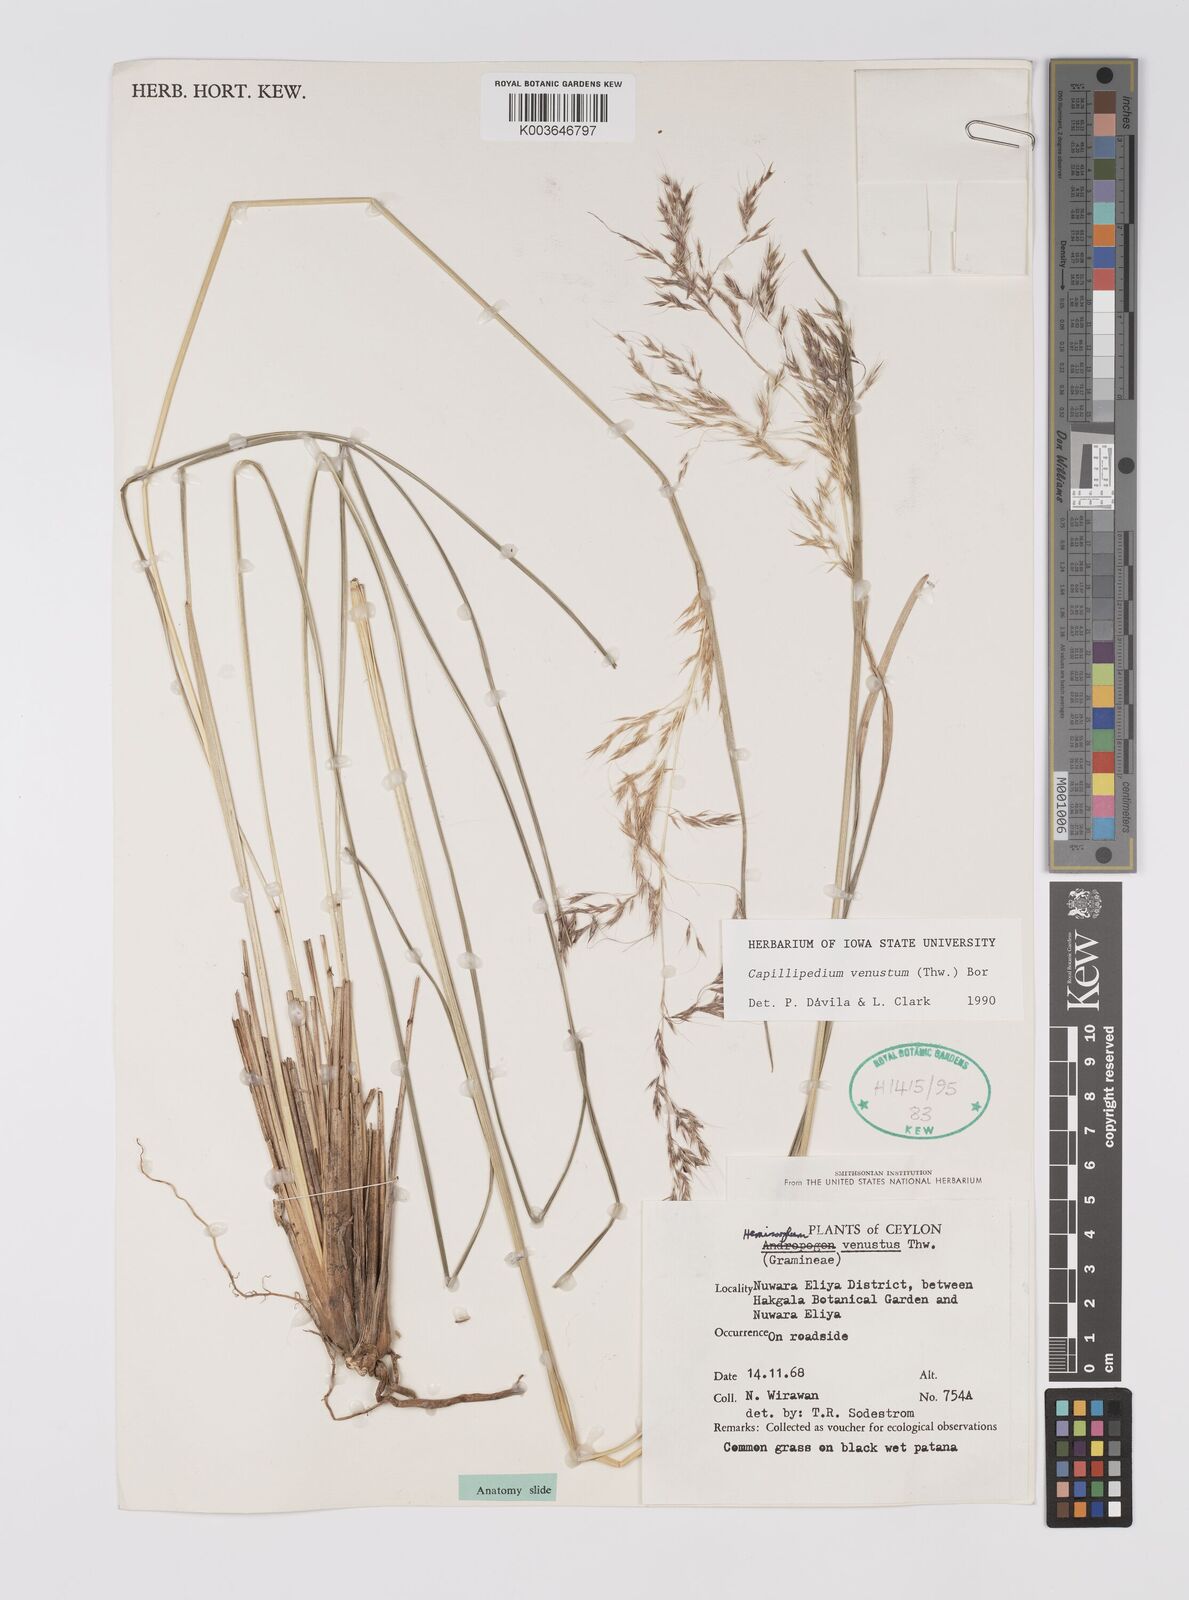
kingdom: Plantae
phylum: Tracheophyta
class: Liliopsida
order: Poales
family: Poaceae
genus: Hemisorghum
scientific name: Hemisorghum venustum
